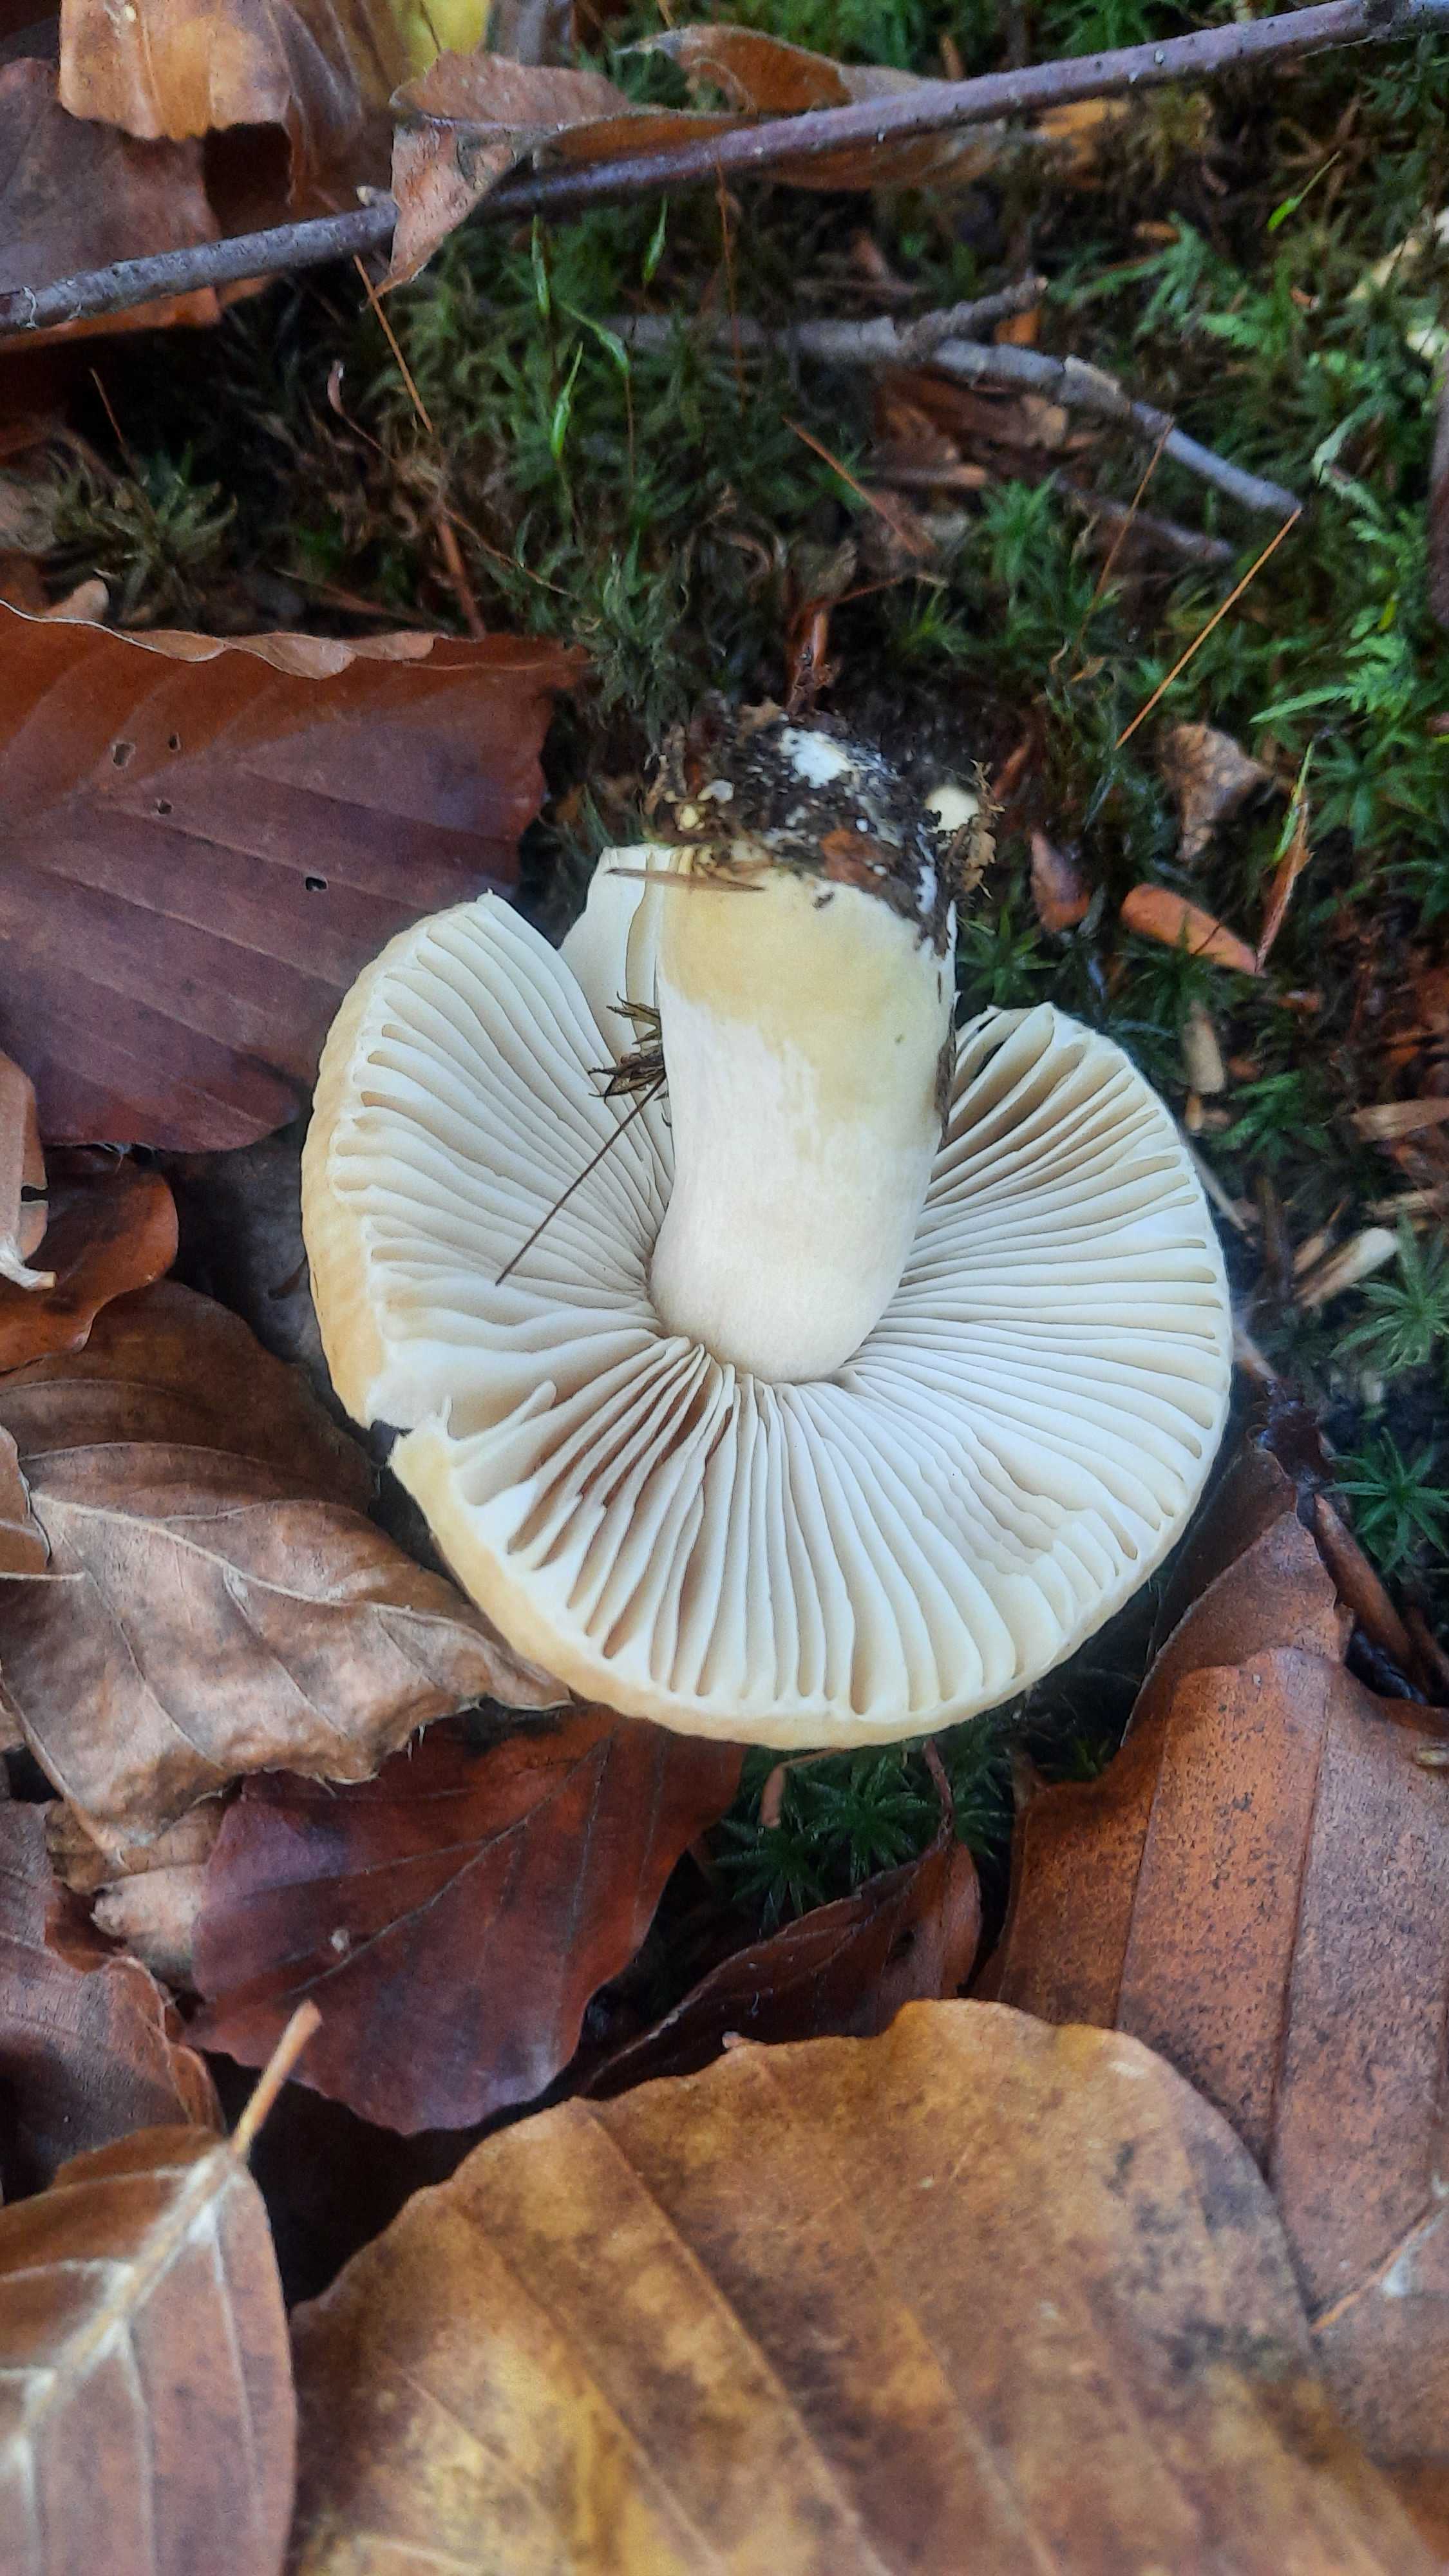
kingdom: Fungi
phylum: Basidiomycota
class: Agaricomycetes
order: Russulales
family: Russulaceae
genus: Russula
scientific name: Russula fellea
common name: galde-skørhat
